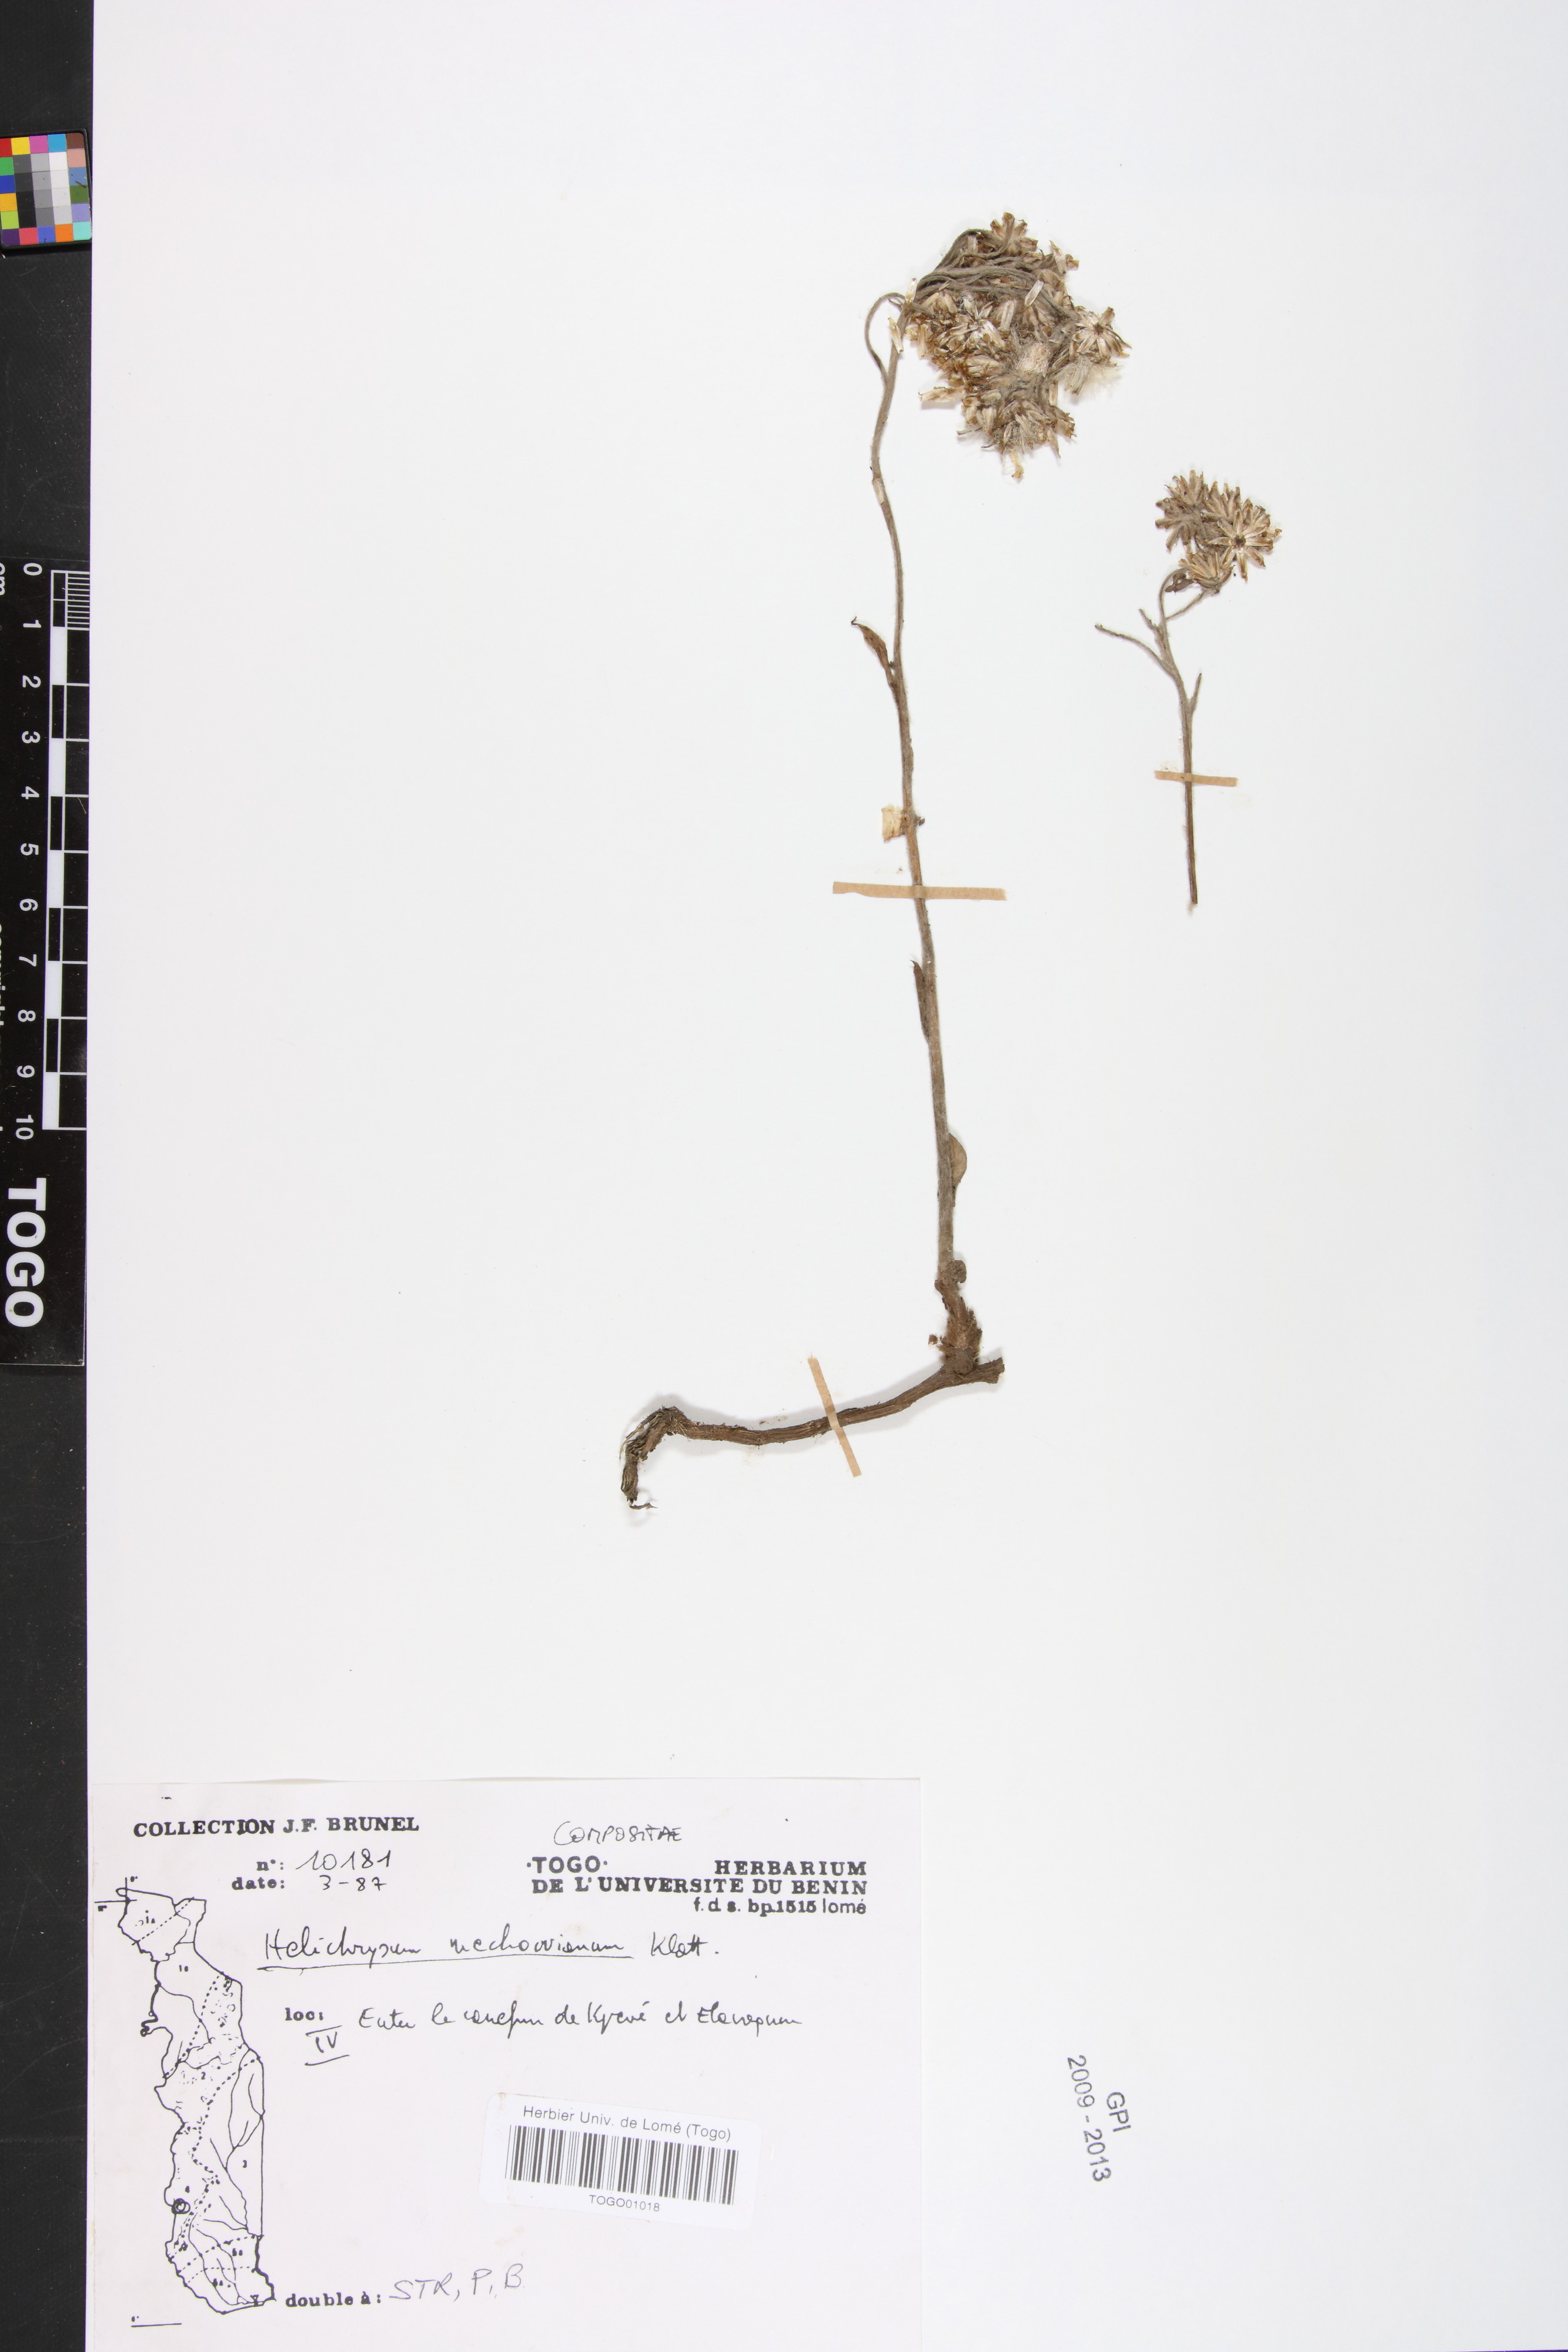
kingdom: Plantae
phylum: Tracheophyta
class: Magnoliopsida
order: Asterales
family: Asteraceae
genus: Helichrysum
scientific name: Helichrysum mechowianum
